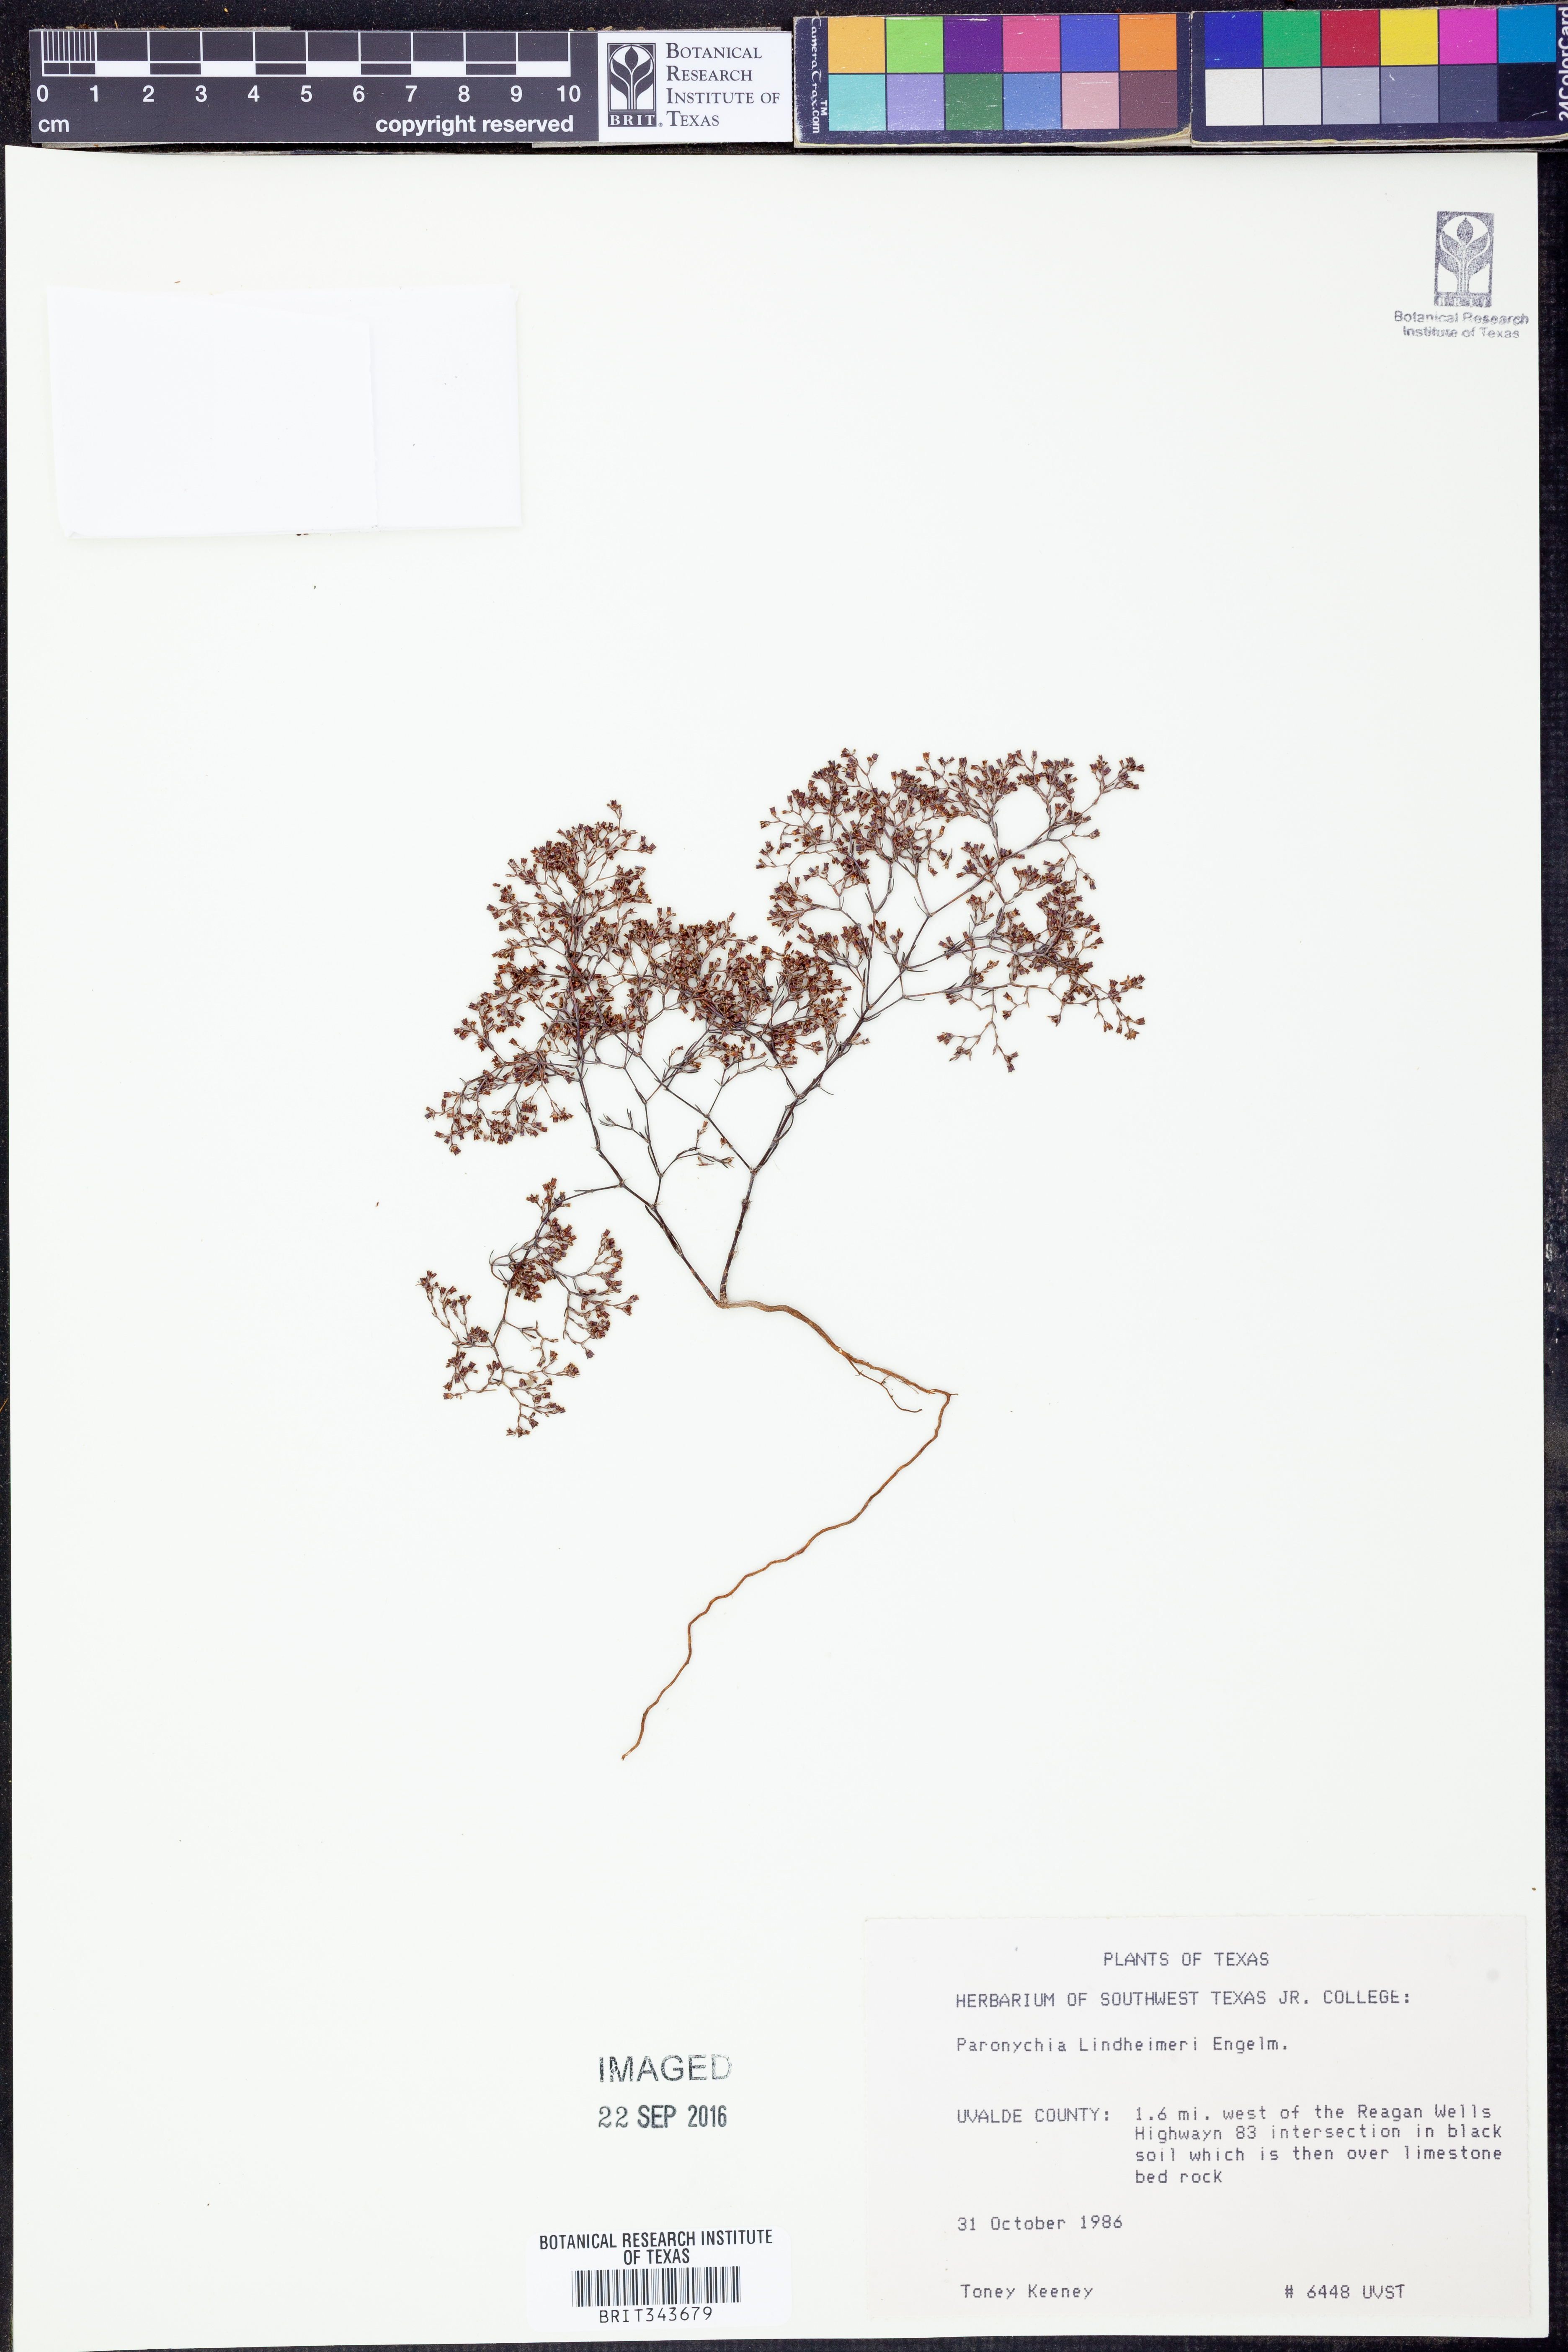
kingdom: Plantae
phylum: Tracheophyta
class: Magnoliopsida
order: Caryophyllales
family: Caryophyllaceae
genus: Paronychia
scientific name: Paronychia lindheimeri
